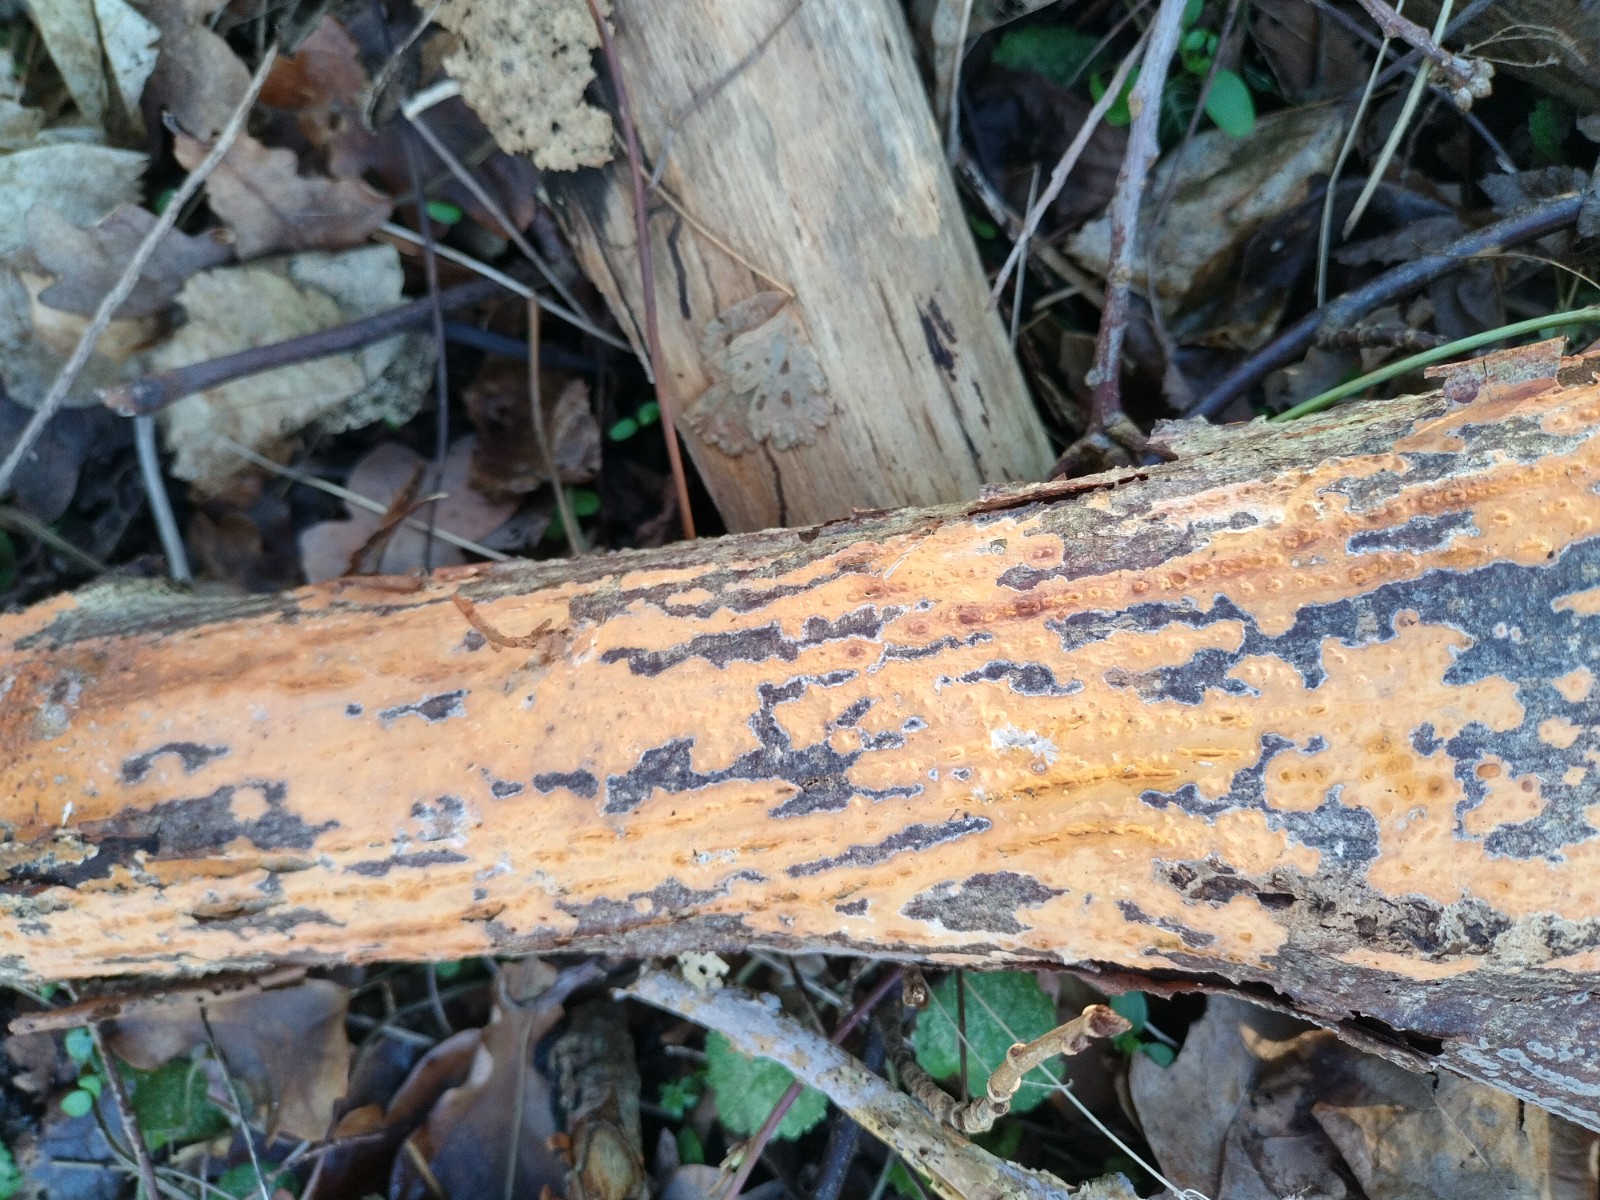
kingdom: Fungi
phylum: Basidiomycota
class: Agaricomycetes
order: Russulales
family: Peniophoraceae
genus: Peniophora
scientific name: Peniophora incarnata
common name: laksefarvet voksskind
